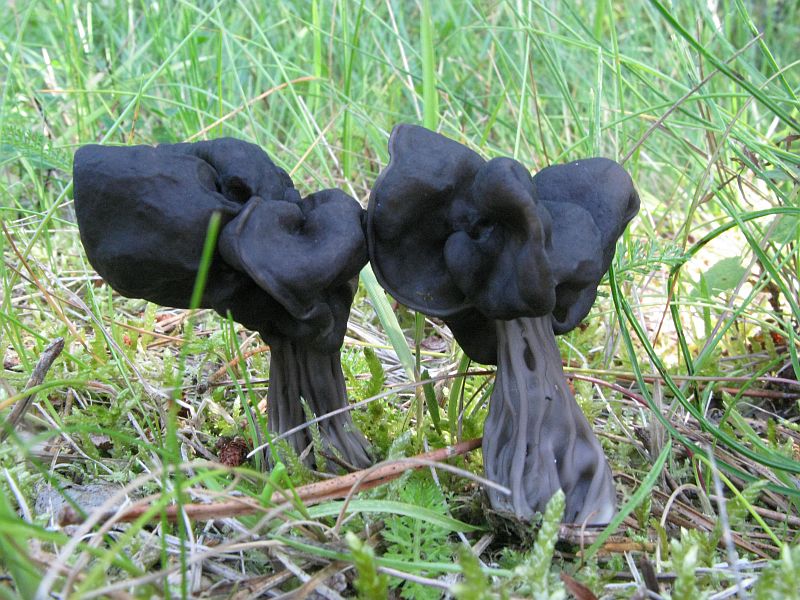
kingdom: Fungi
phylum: Ascomycota
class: Pezizomycetes
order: Pezizales
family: Helvellaceae
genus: Helvella
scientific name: Helvella lacunosa
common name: grubet foldhat
